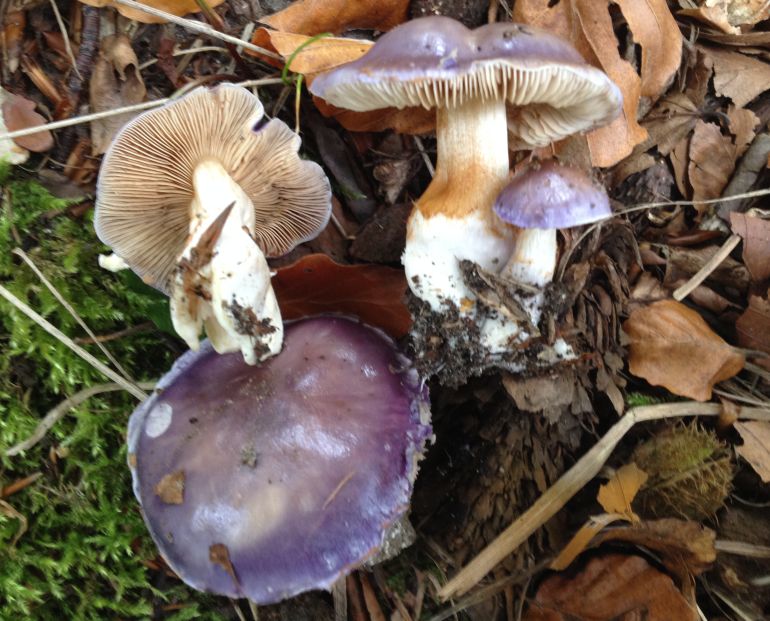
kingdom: Fungi
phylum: Basidiomycota
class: Agaricomycetes
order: Agaricales
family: Cortinariaceae
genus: Thaxterogaster
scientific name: Thaxterogaster croceocoeruleus
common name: blågullig slørhat
